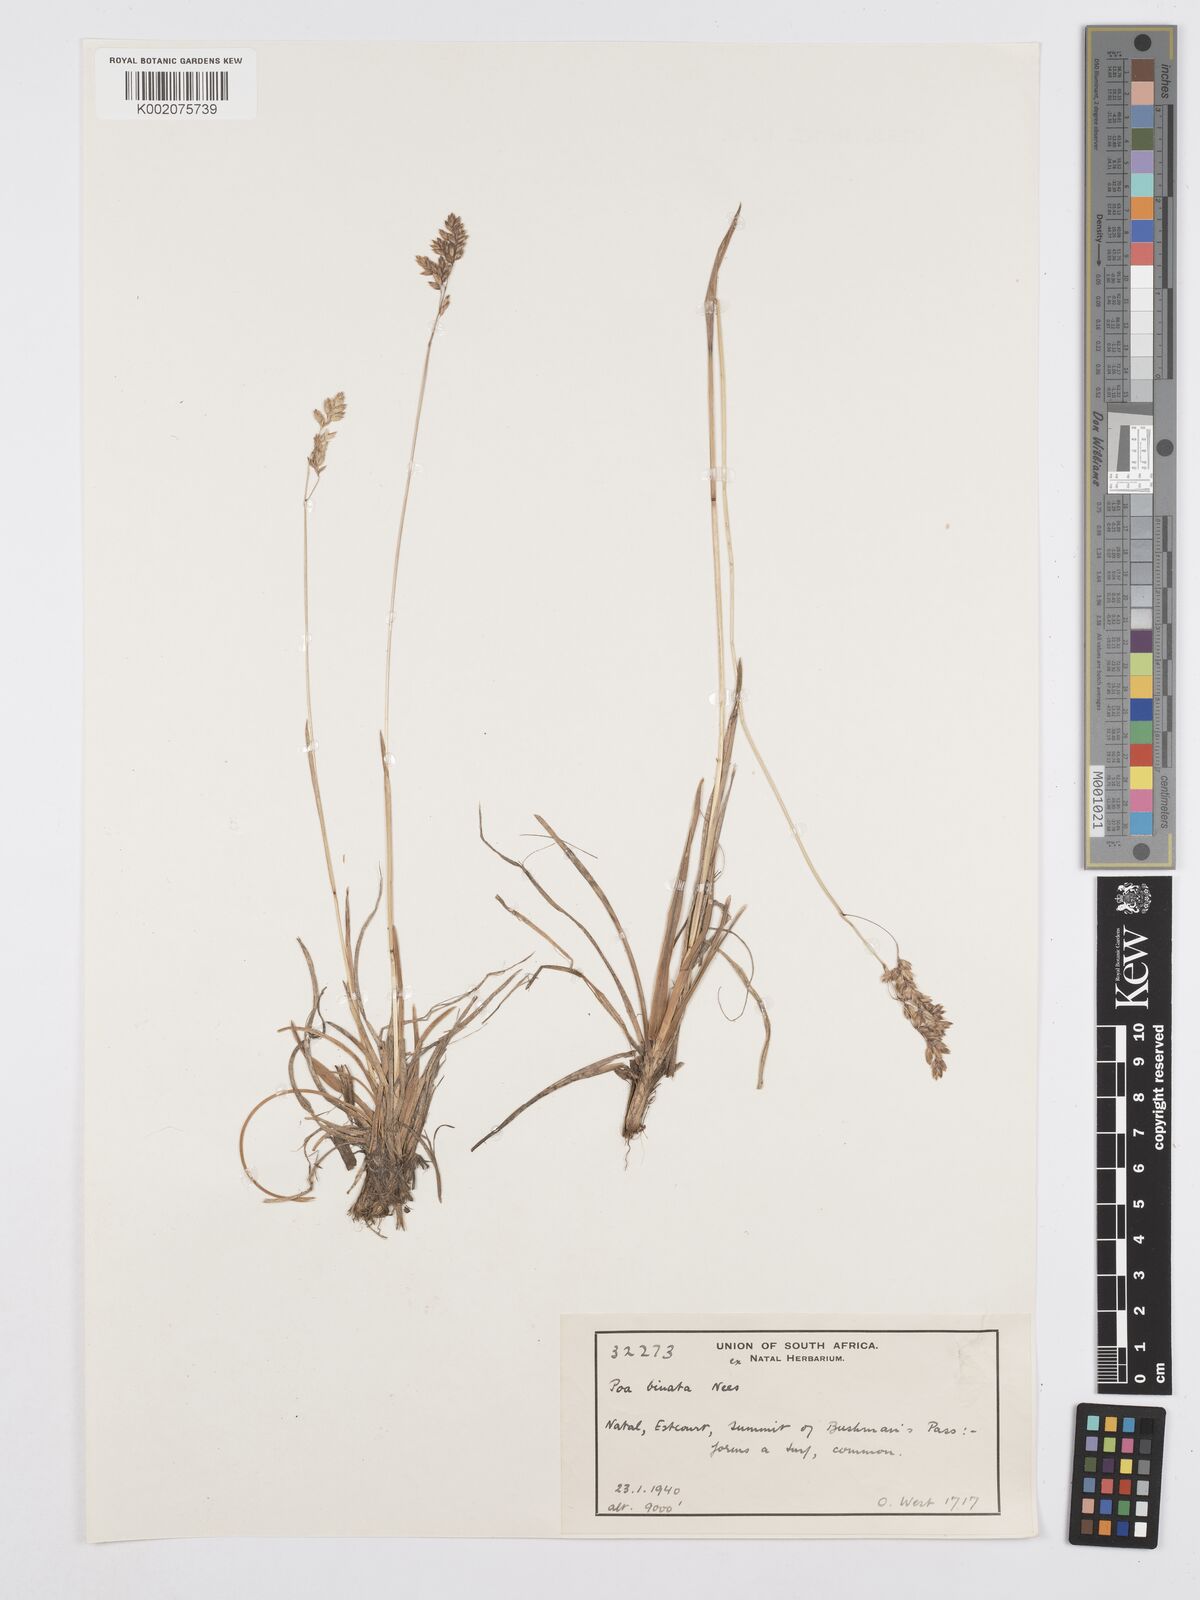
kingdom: Plantae
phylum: Tracheophyta
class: Liliopsida
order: Poales
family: Poaceae
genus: Poa
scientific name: Poa binata
